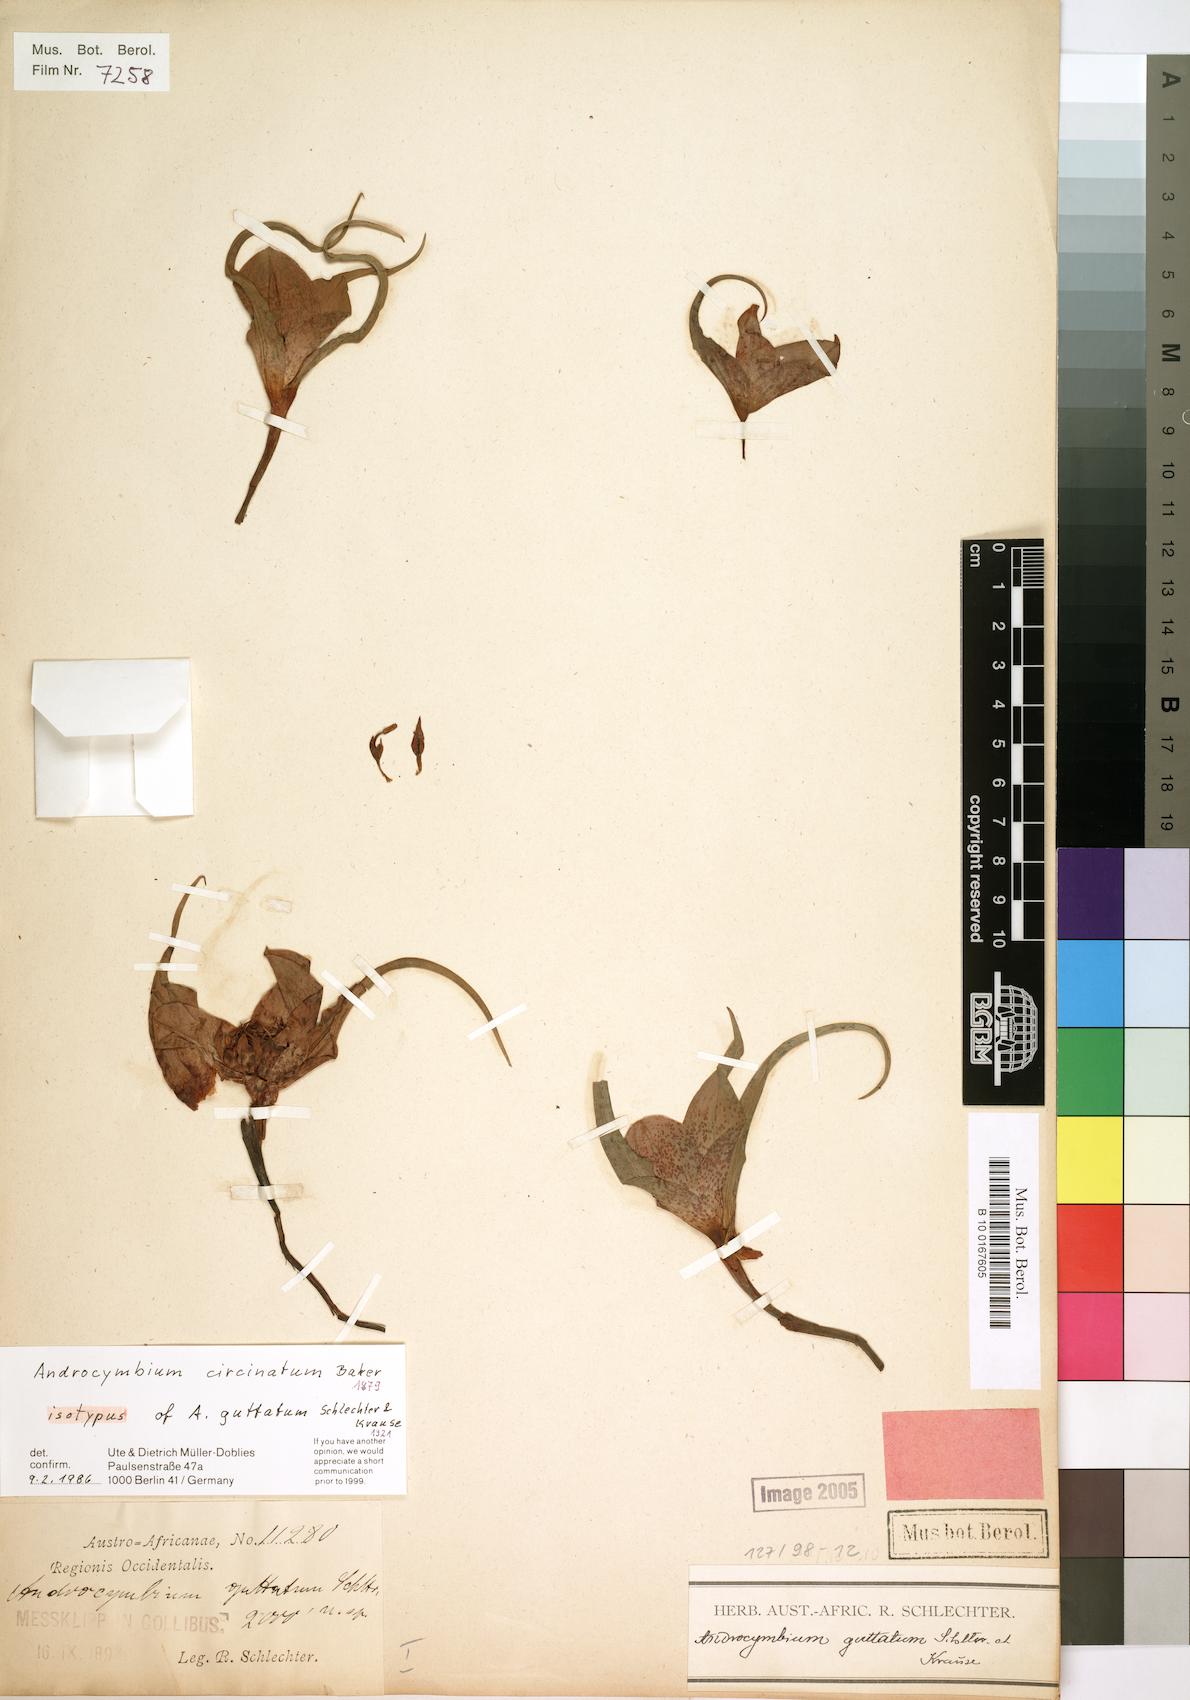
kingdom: Plantae
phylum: Tracheophyta
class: Liliopsida
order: Liliales
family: Colchicaceae
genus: Colchicum
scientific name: Colchicum circinatum
